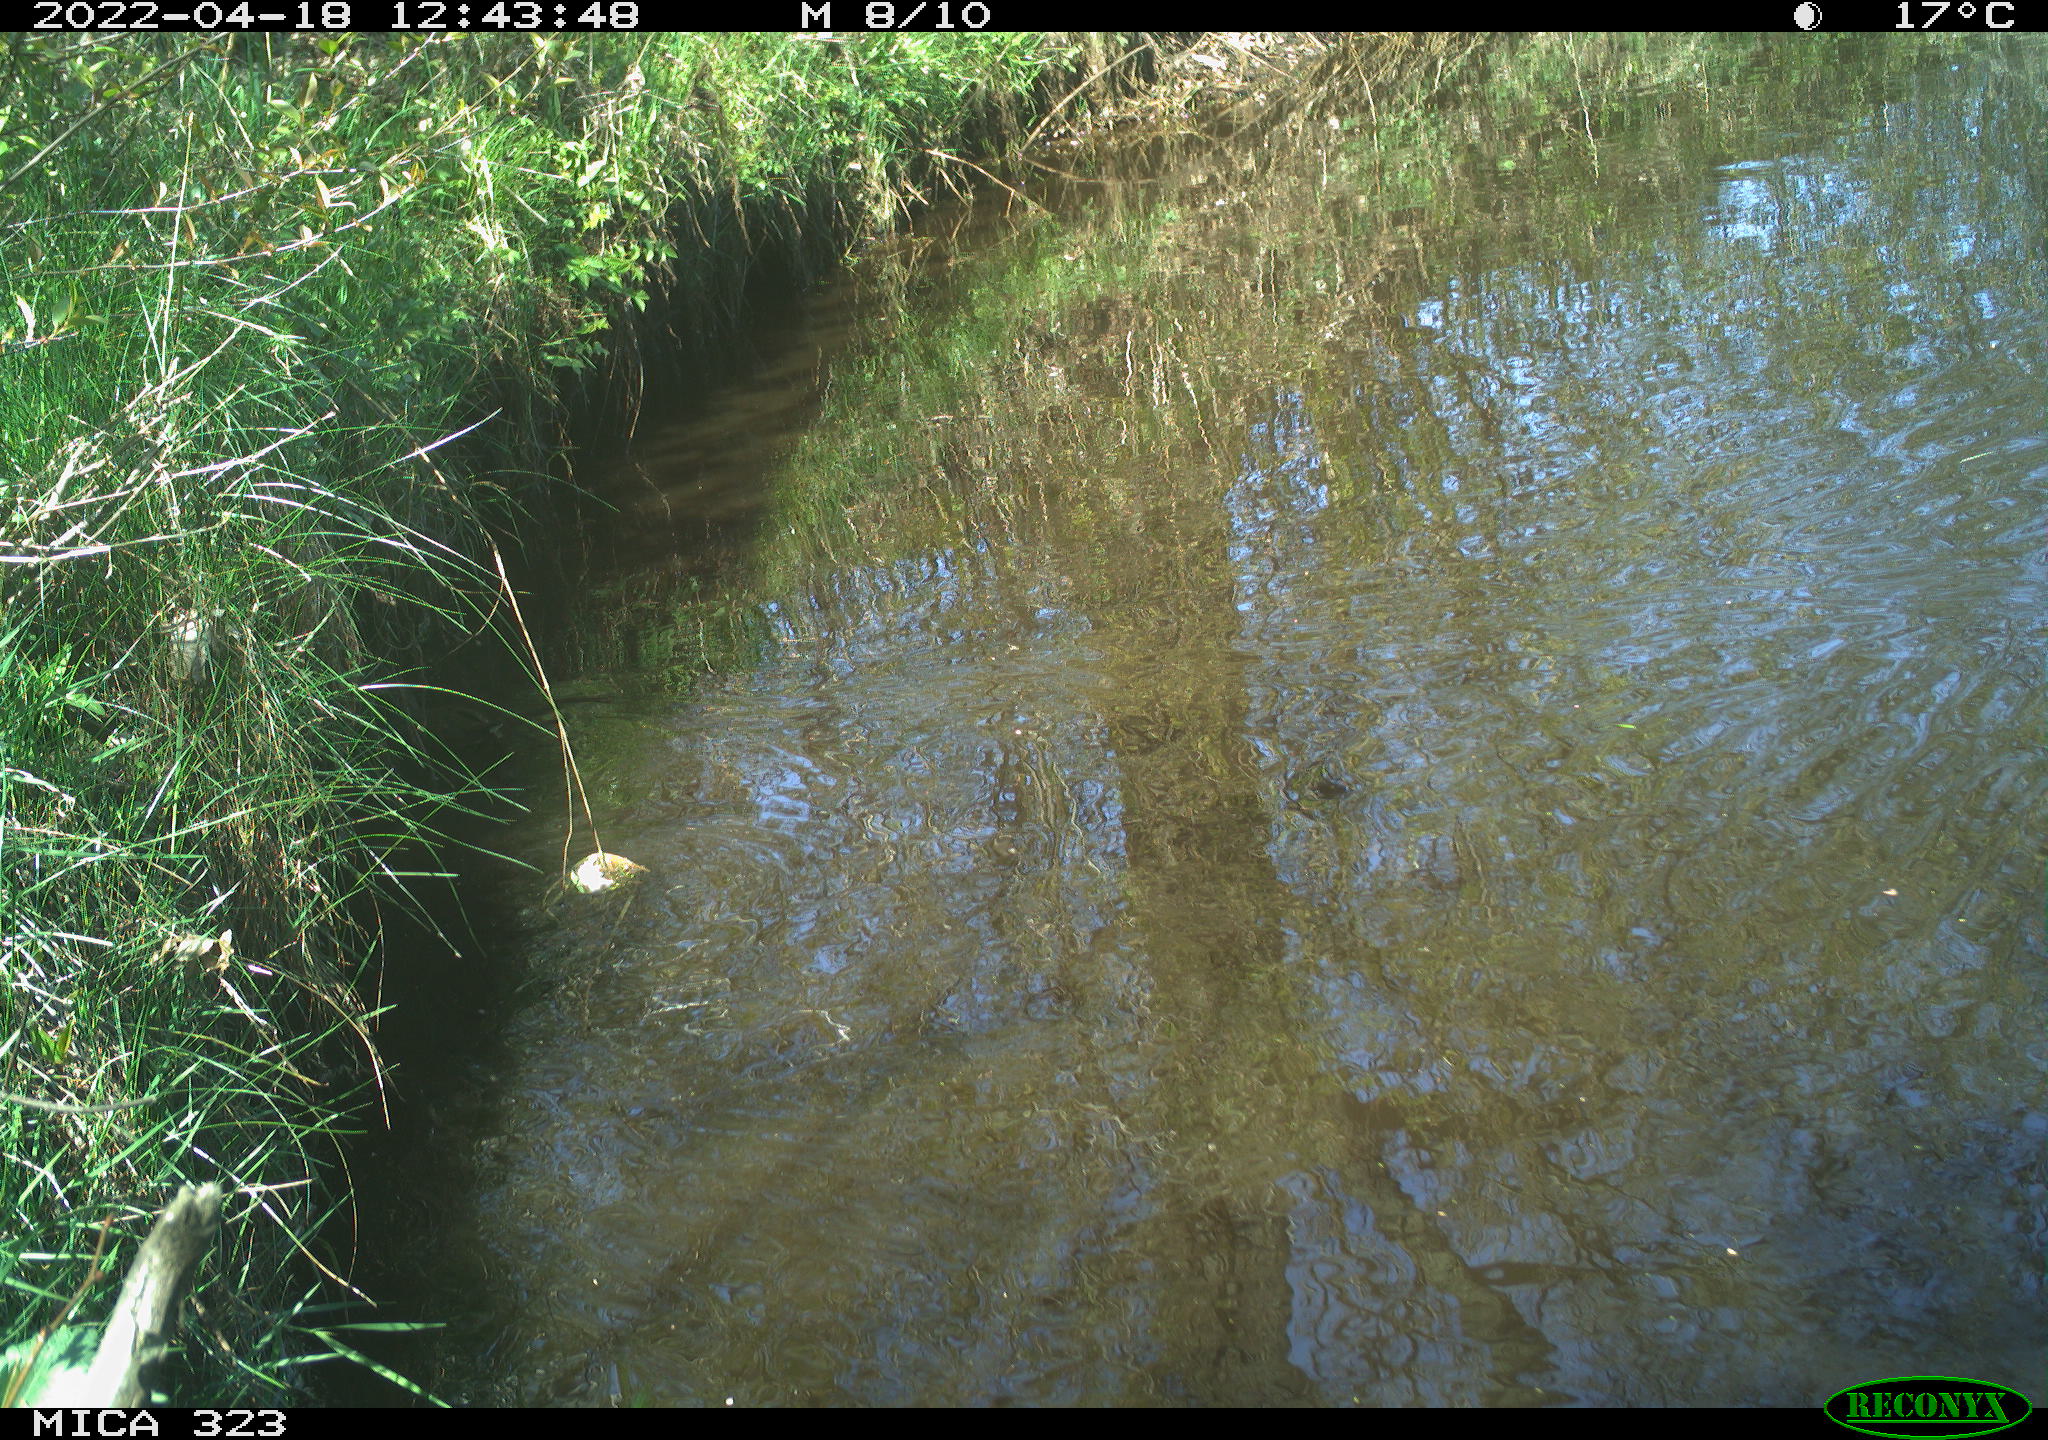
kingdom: Animalia
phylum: Chordata
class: Aves
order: Gruiformes
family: Rallidae
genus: Gallinula
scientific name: Gallinula chloropus
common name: Common moorhen
